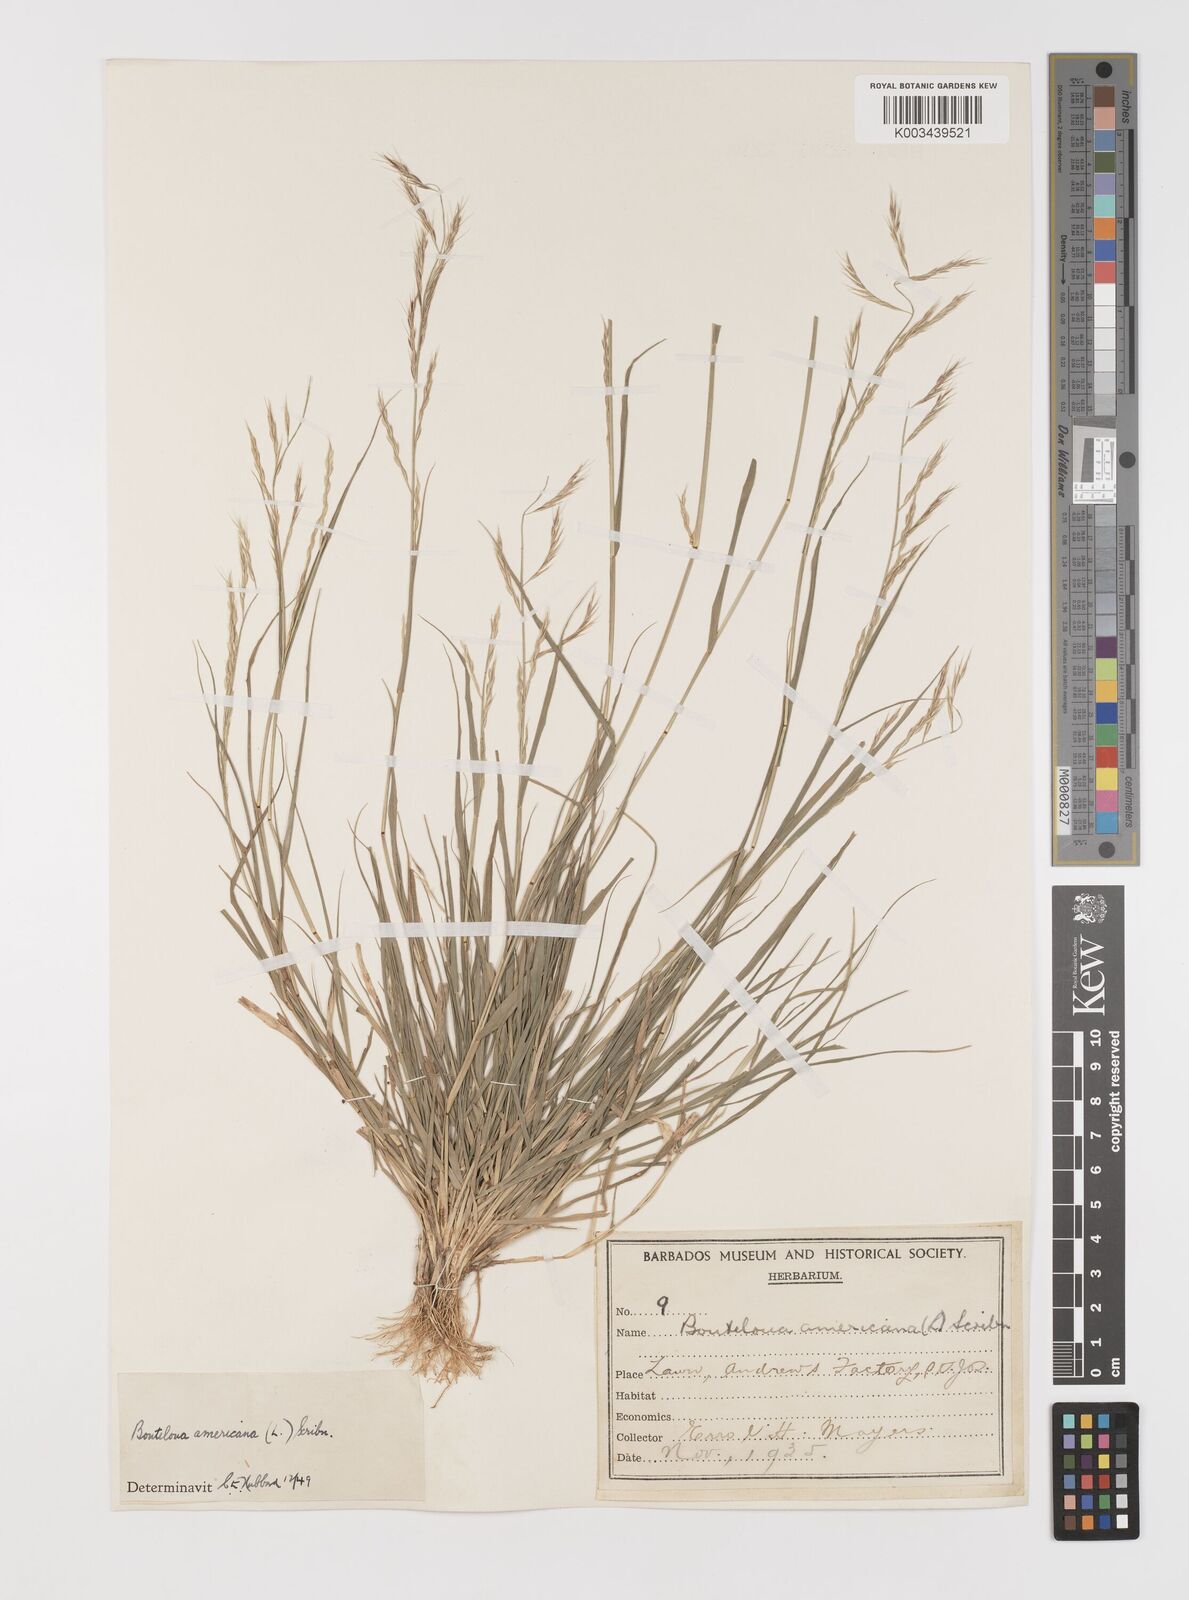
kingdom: Plantae
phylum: Tracheophyta
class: Liliopsida
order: Poales
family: Poaceae
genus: Bouteloua
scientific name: Bouteloua americana
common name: Mule grass
